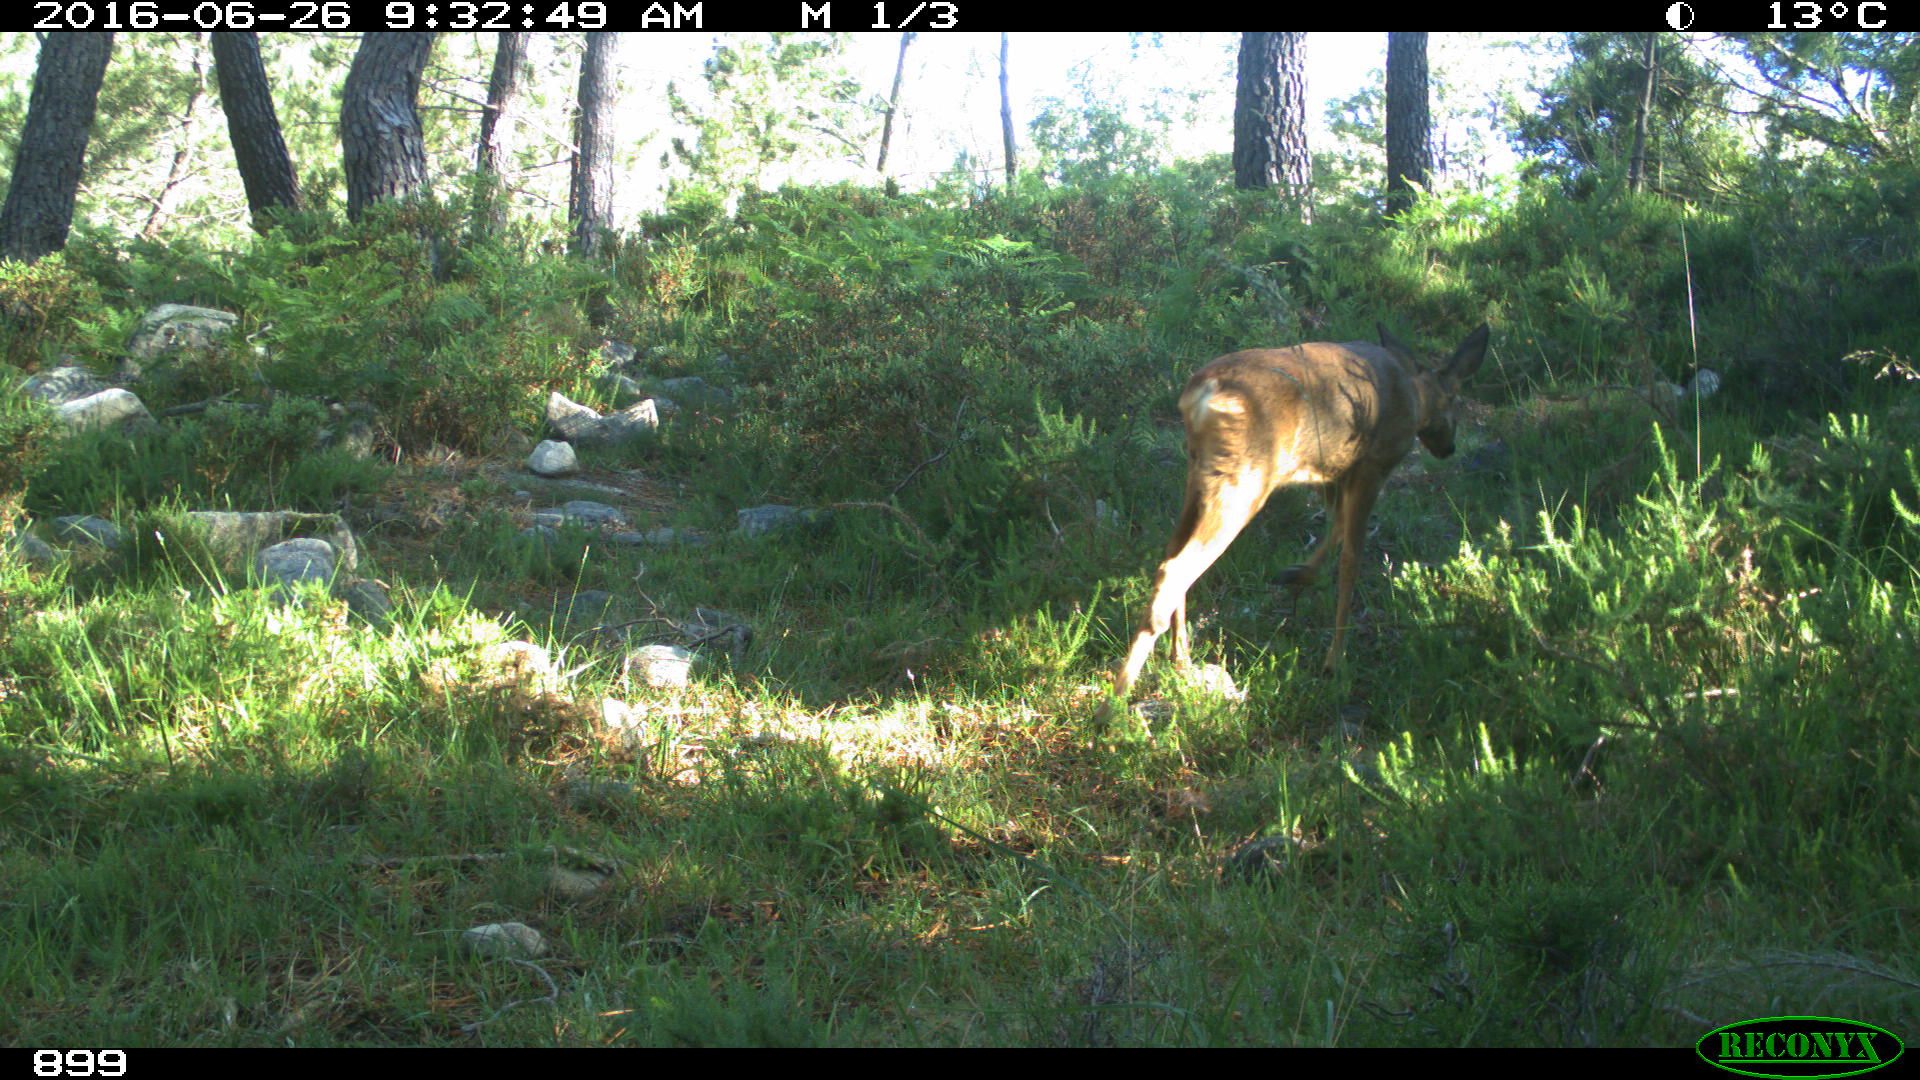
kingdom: Animalia
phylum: Chordata
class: Mammalia
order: Artiodactyla
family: Cervidae
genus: Capreolus
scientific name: Capreolus capreolus
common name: Western roe deer
